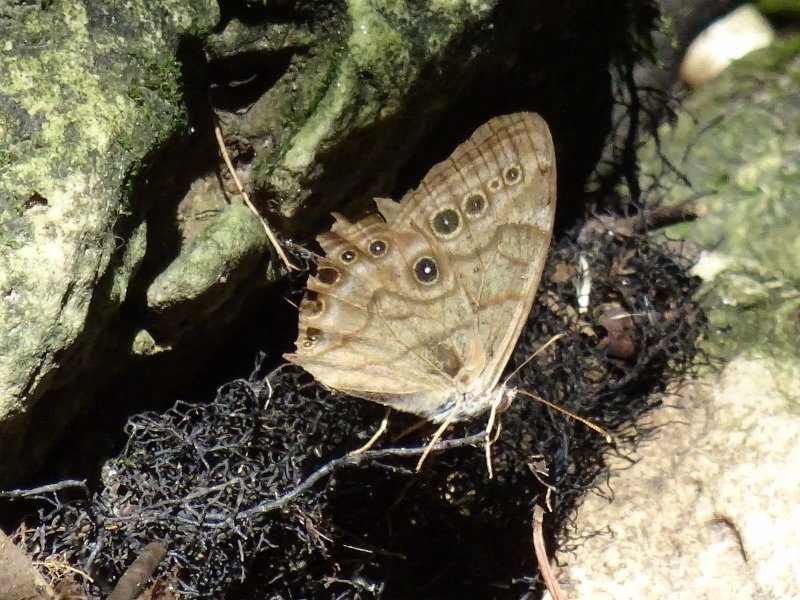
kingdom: Animalia
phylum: Arthropoda
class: Insecta
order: Lepidoptera
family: Nymphalidae
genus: Lethe
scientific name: Lethe anthedon
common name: Northern Pearly-Eye
